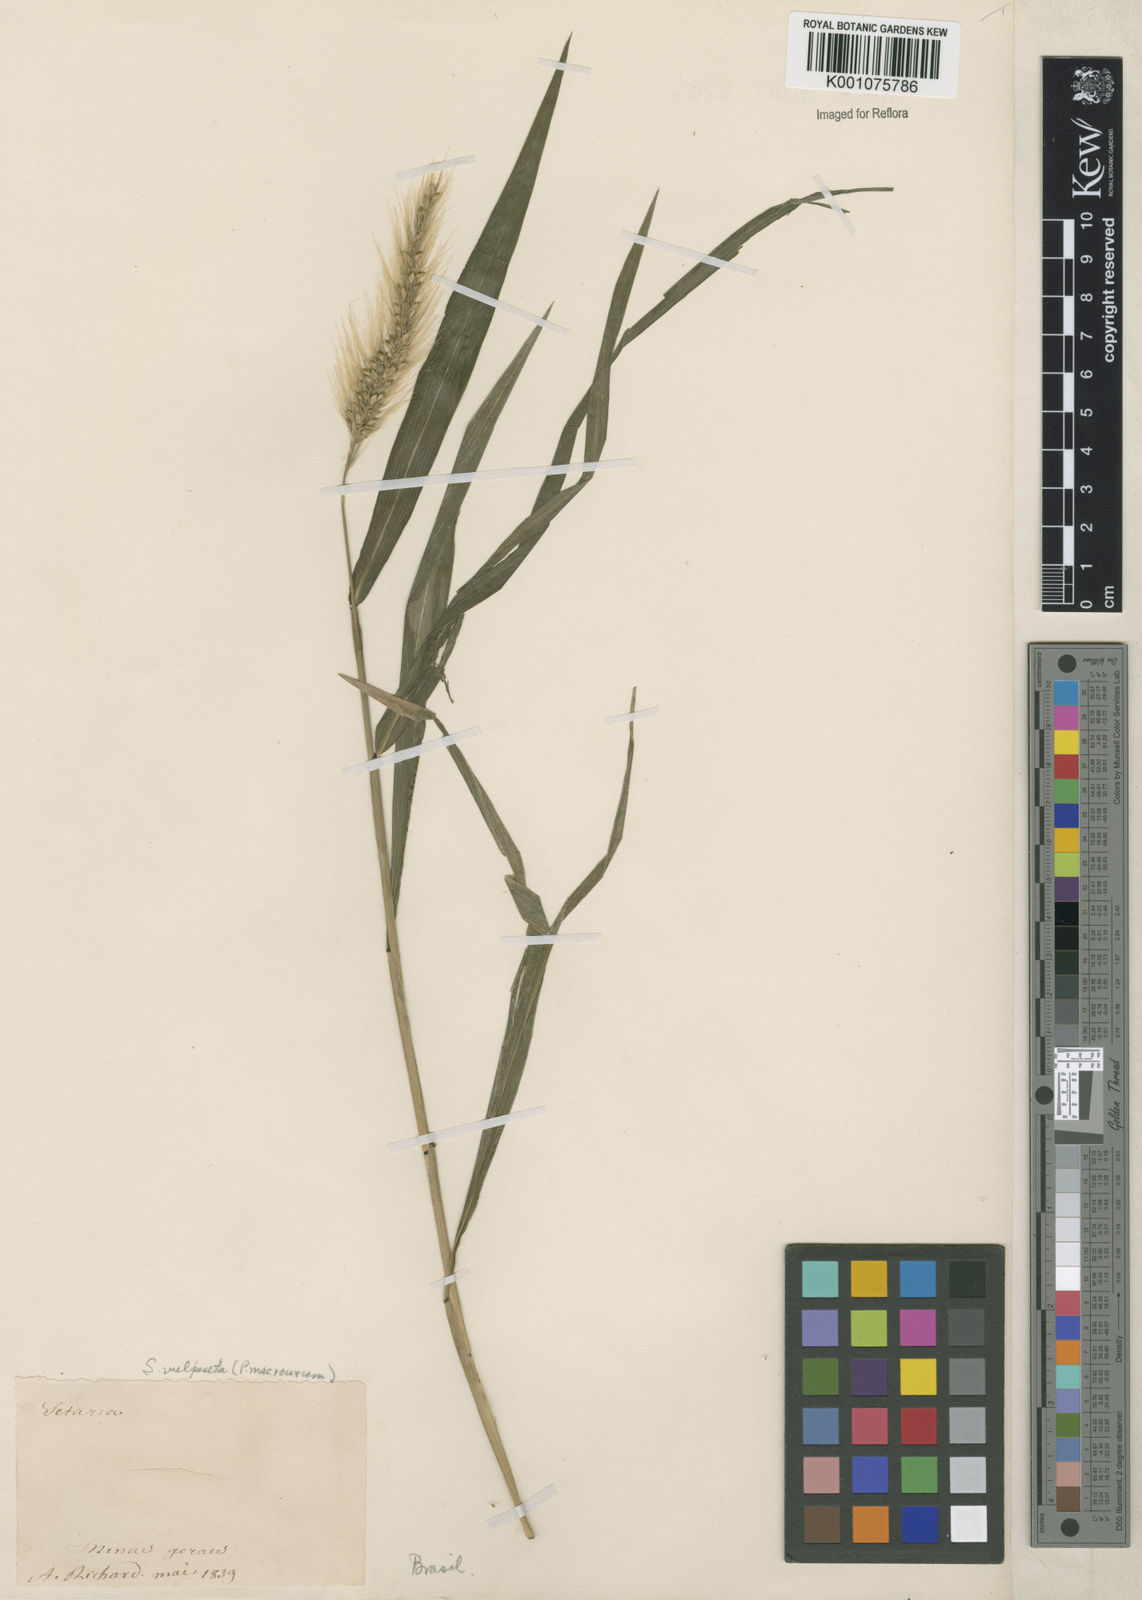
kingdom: Plantae
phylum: Tracheophyta
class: Liliopsida
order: Poales
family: Poaceae
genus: Setaria
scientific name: Setaria vulpiseta
